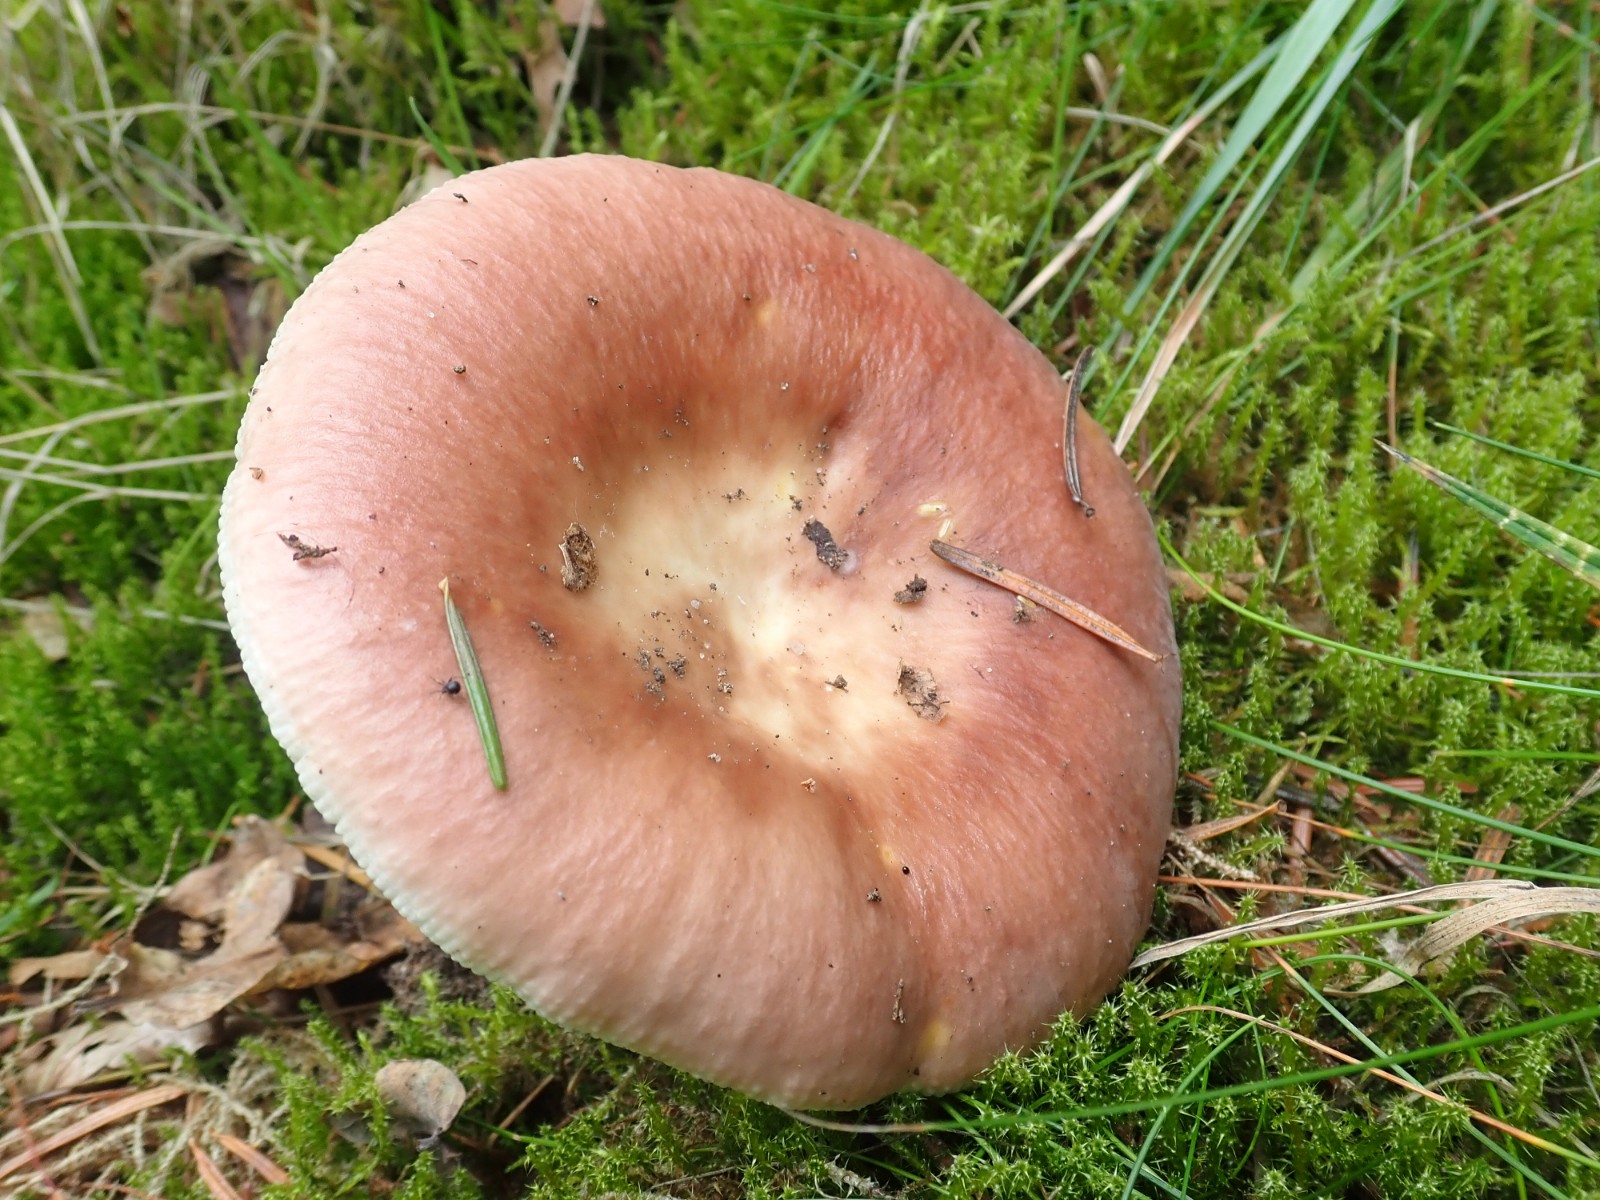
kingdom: Fungi
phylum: Basidiomycota
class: Agaricomycetes
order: Russulales
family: Russulaceae
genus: Russula
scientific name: Russula vesca
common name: spiselig skørhat
